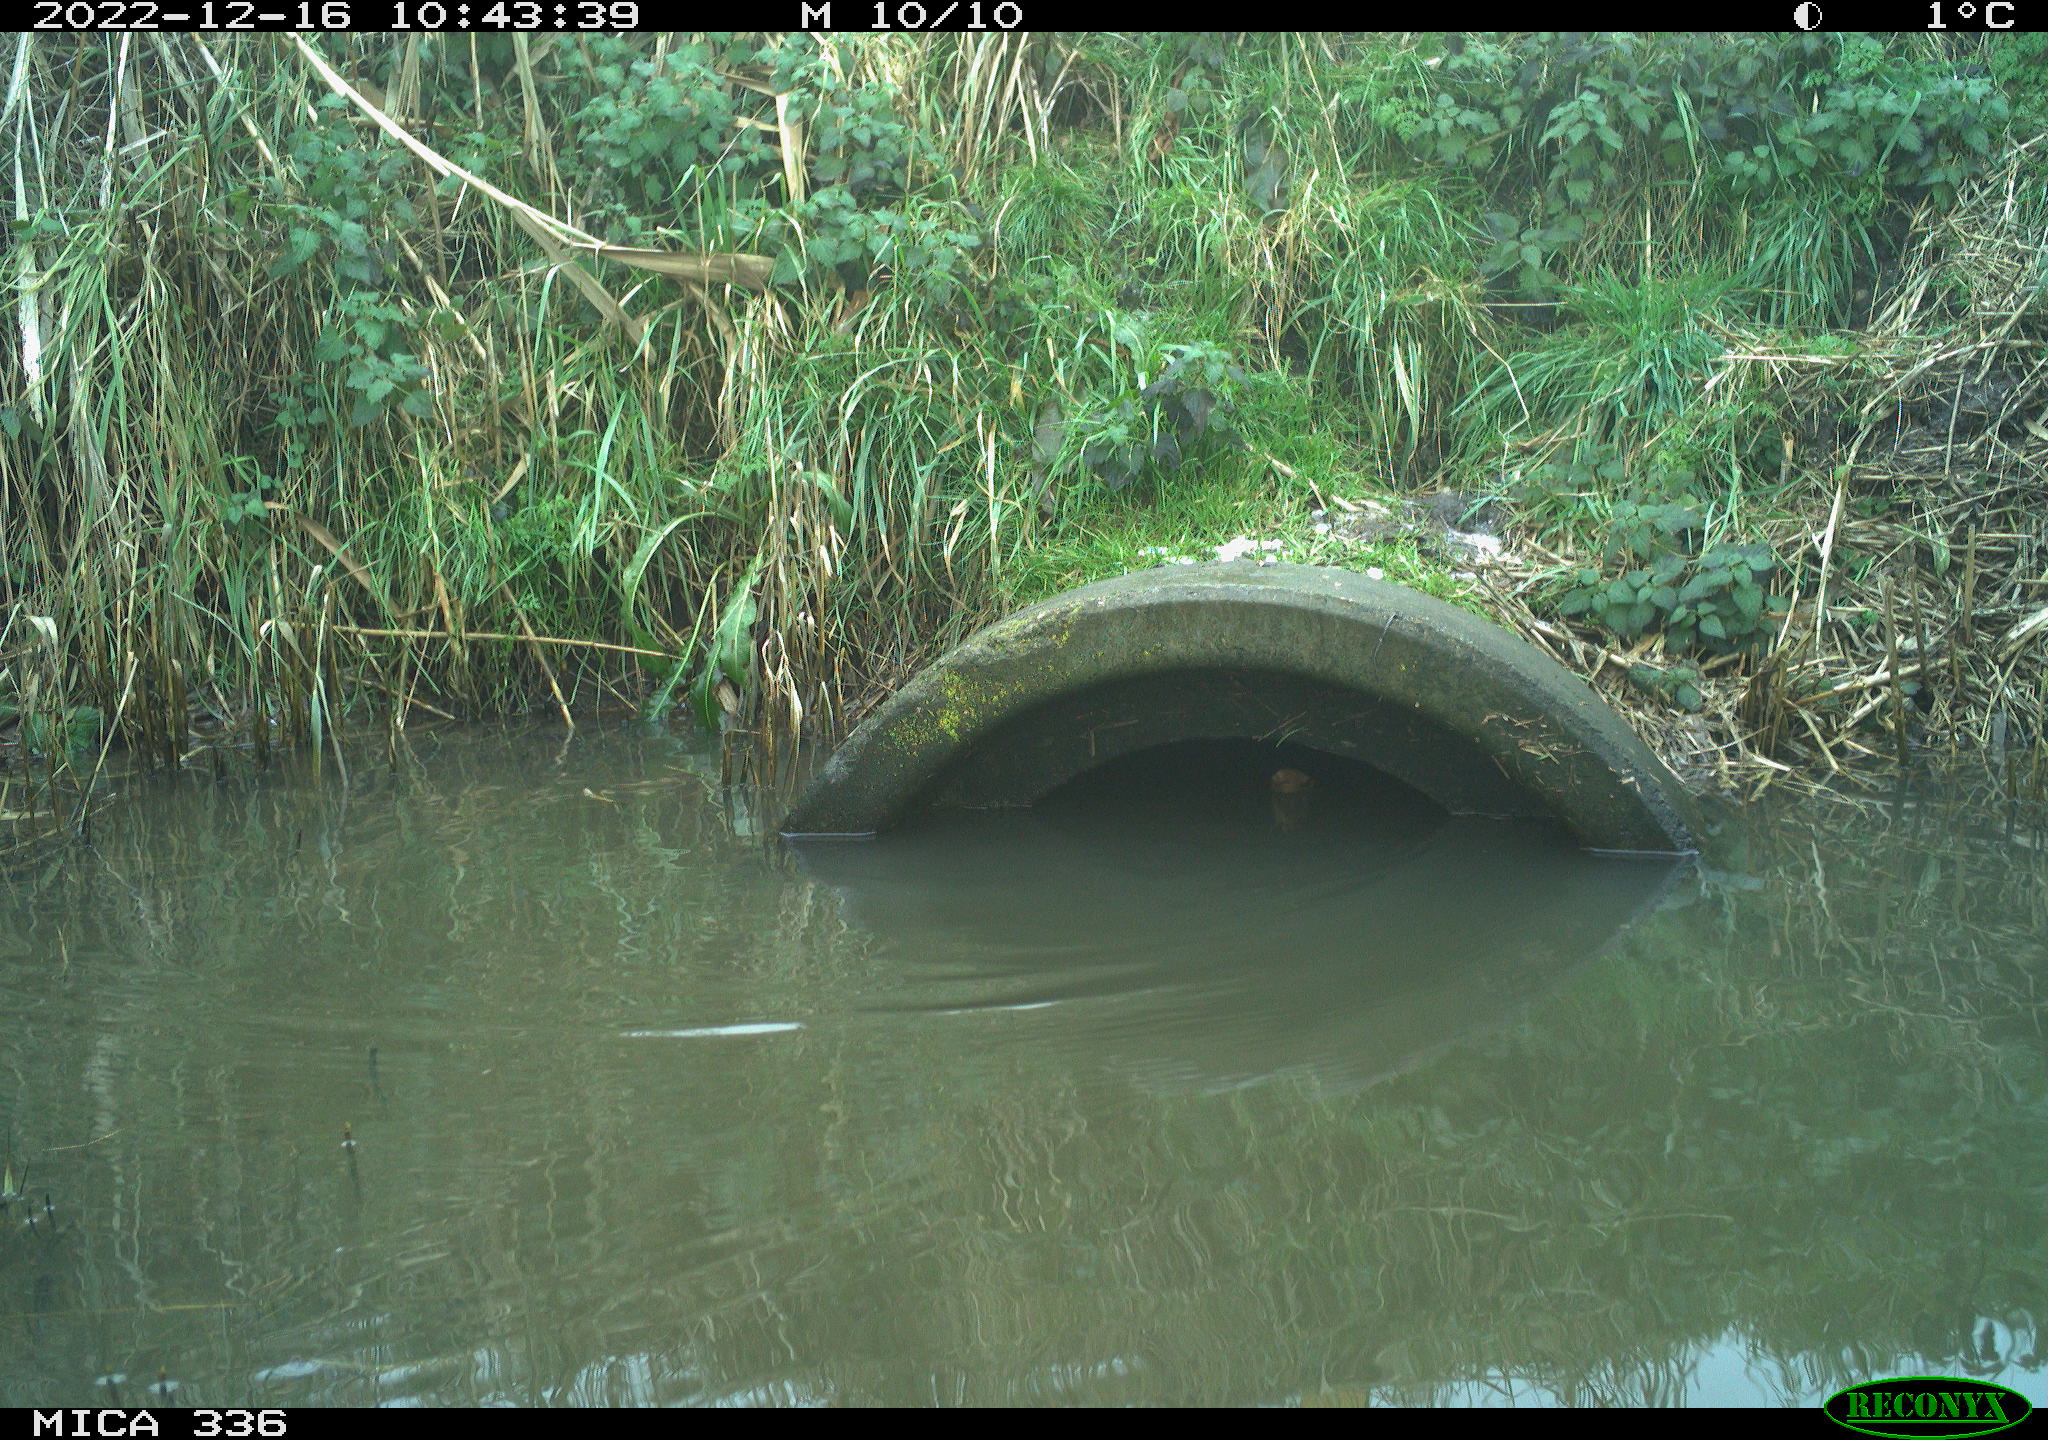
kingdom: Animalia
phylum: Chordata
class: Aves
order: Gruiformes
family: Rallidae
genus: Rallus
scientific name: Rallus aquaticus
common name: Water rail
